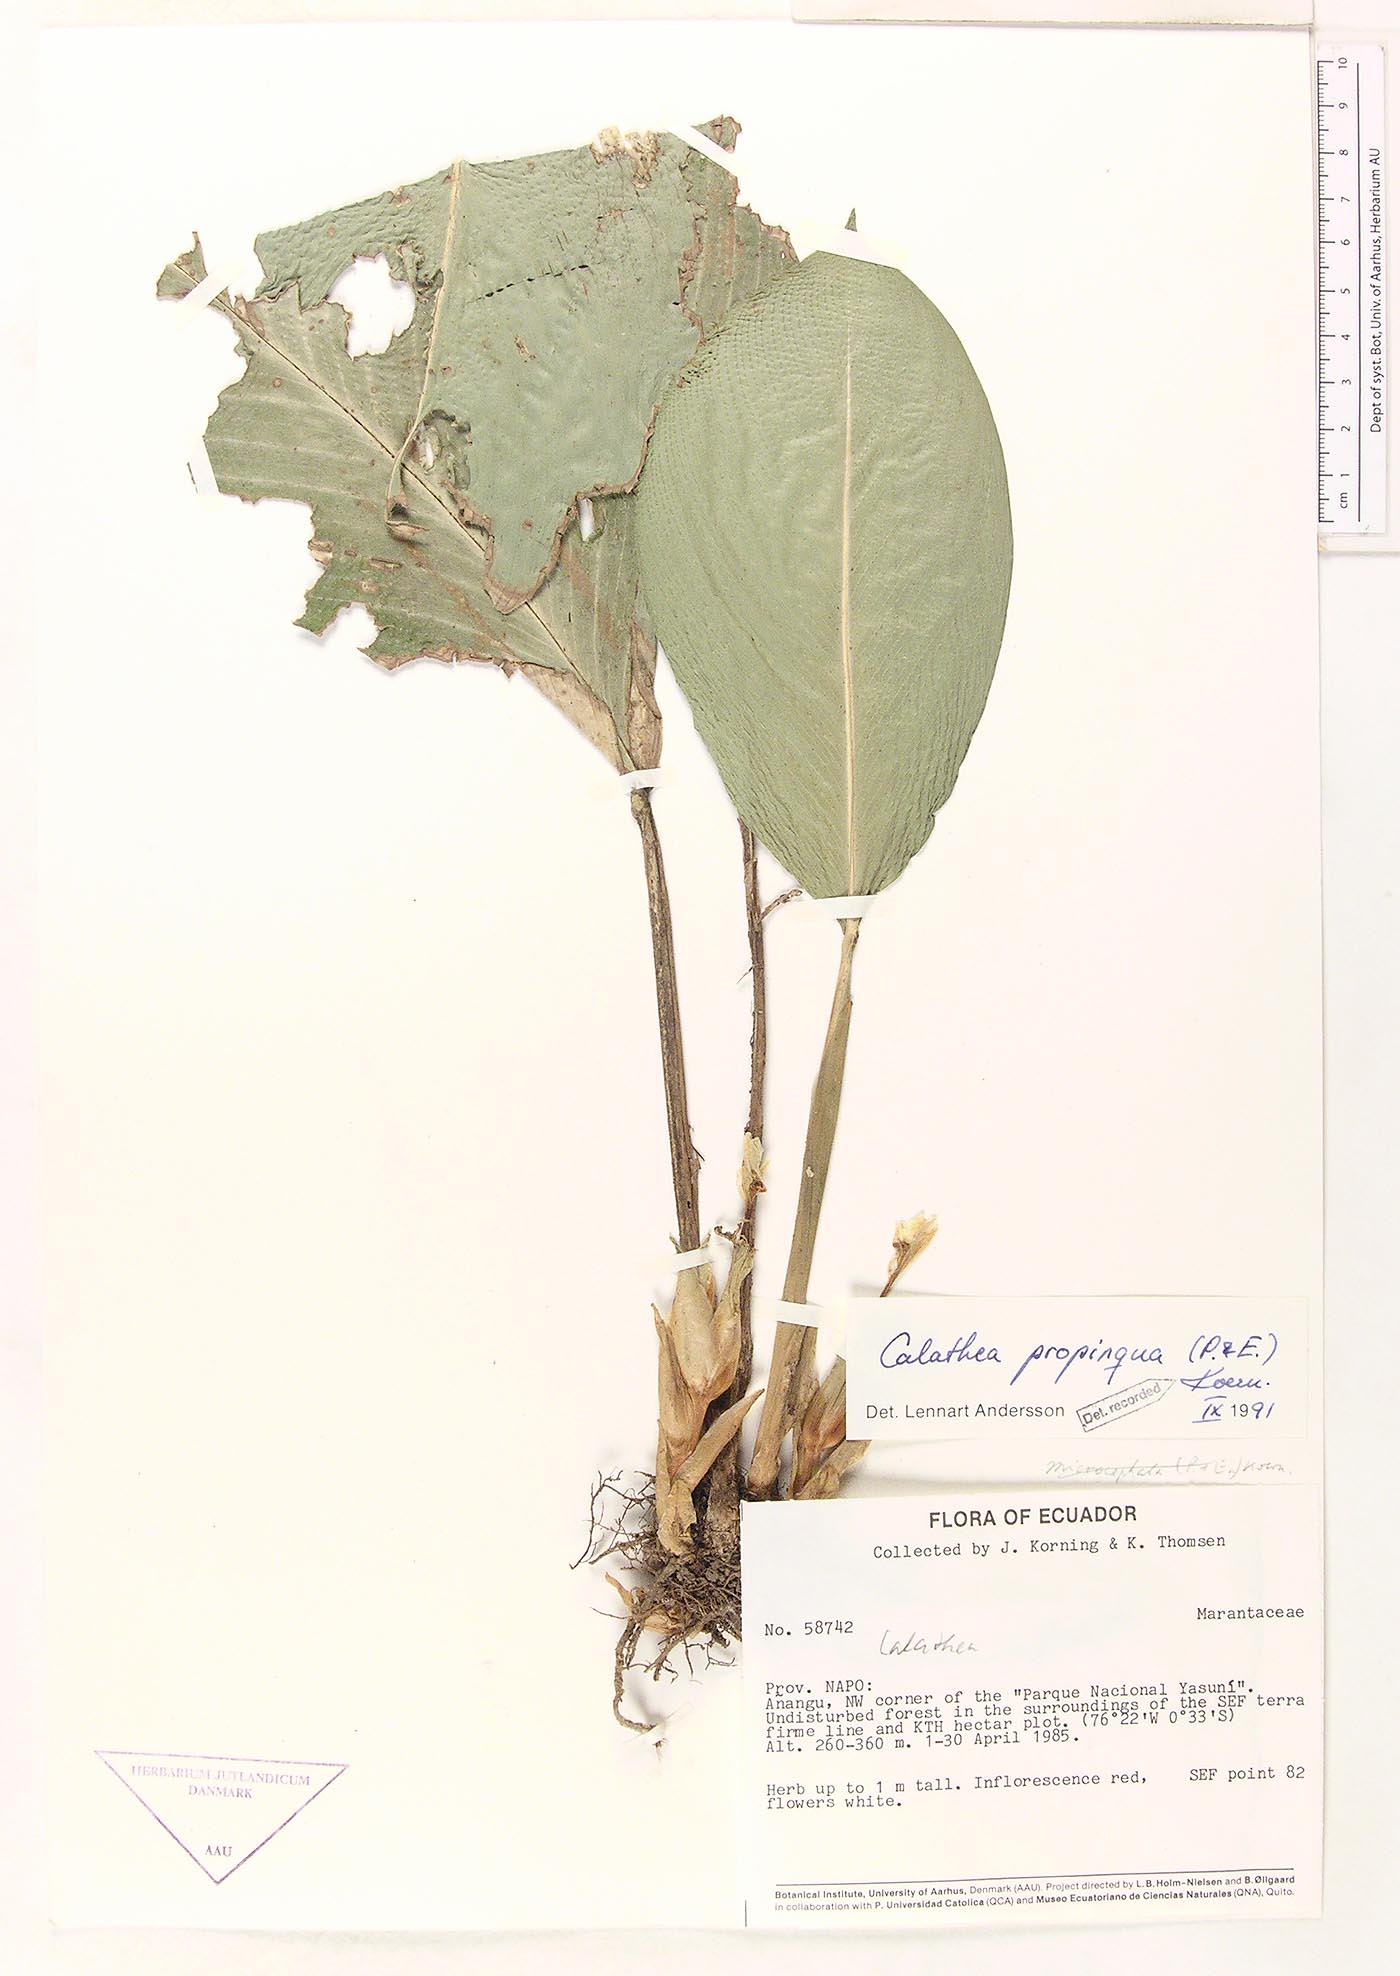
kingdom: Plantae
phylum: Tracheophyta
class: Liliopsida
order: Zingiberales
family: Marantaceae
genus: Goeppertia
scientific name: Goeppertia propinqua
